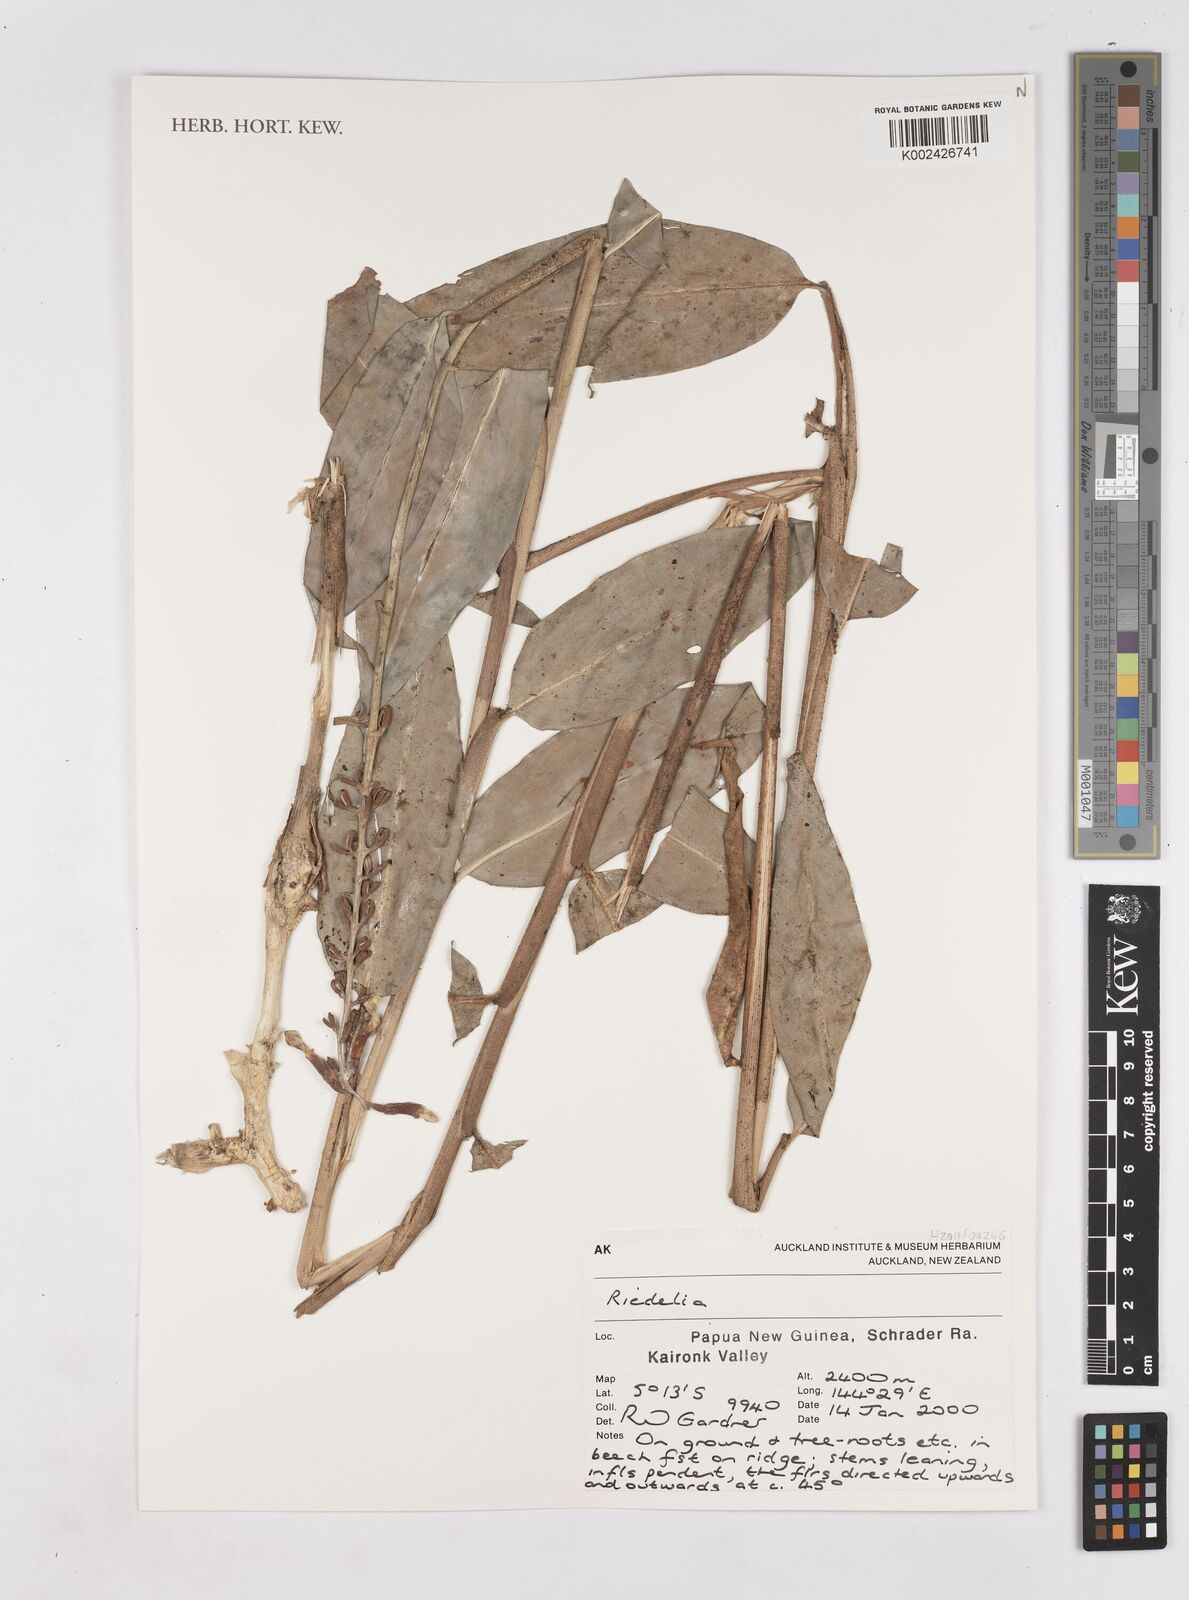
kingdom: Plantae
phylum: Tracheophyta
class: Liliopsida
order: Zingiberales
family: Zingiberaceae
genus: Riedelia
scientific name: Riedelia
